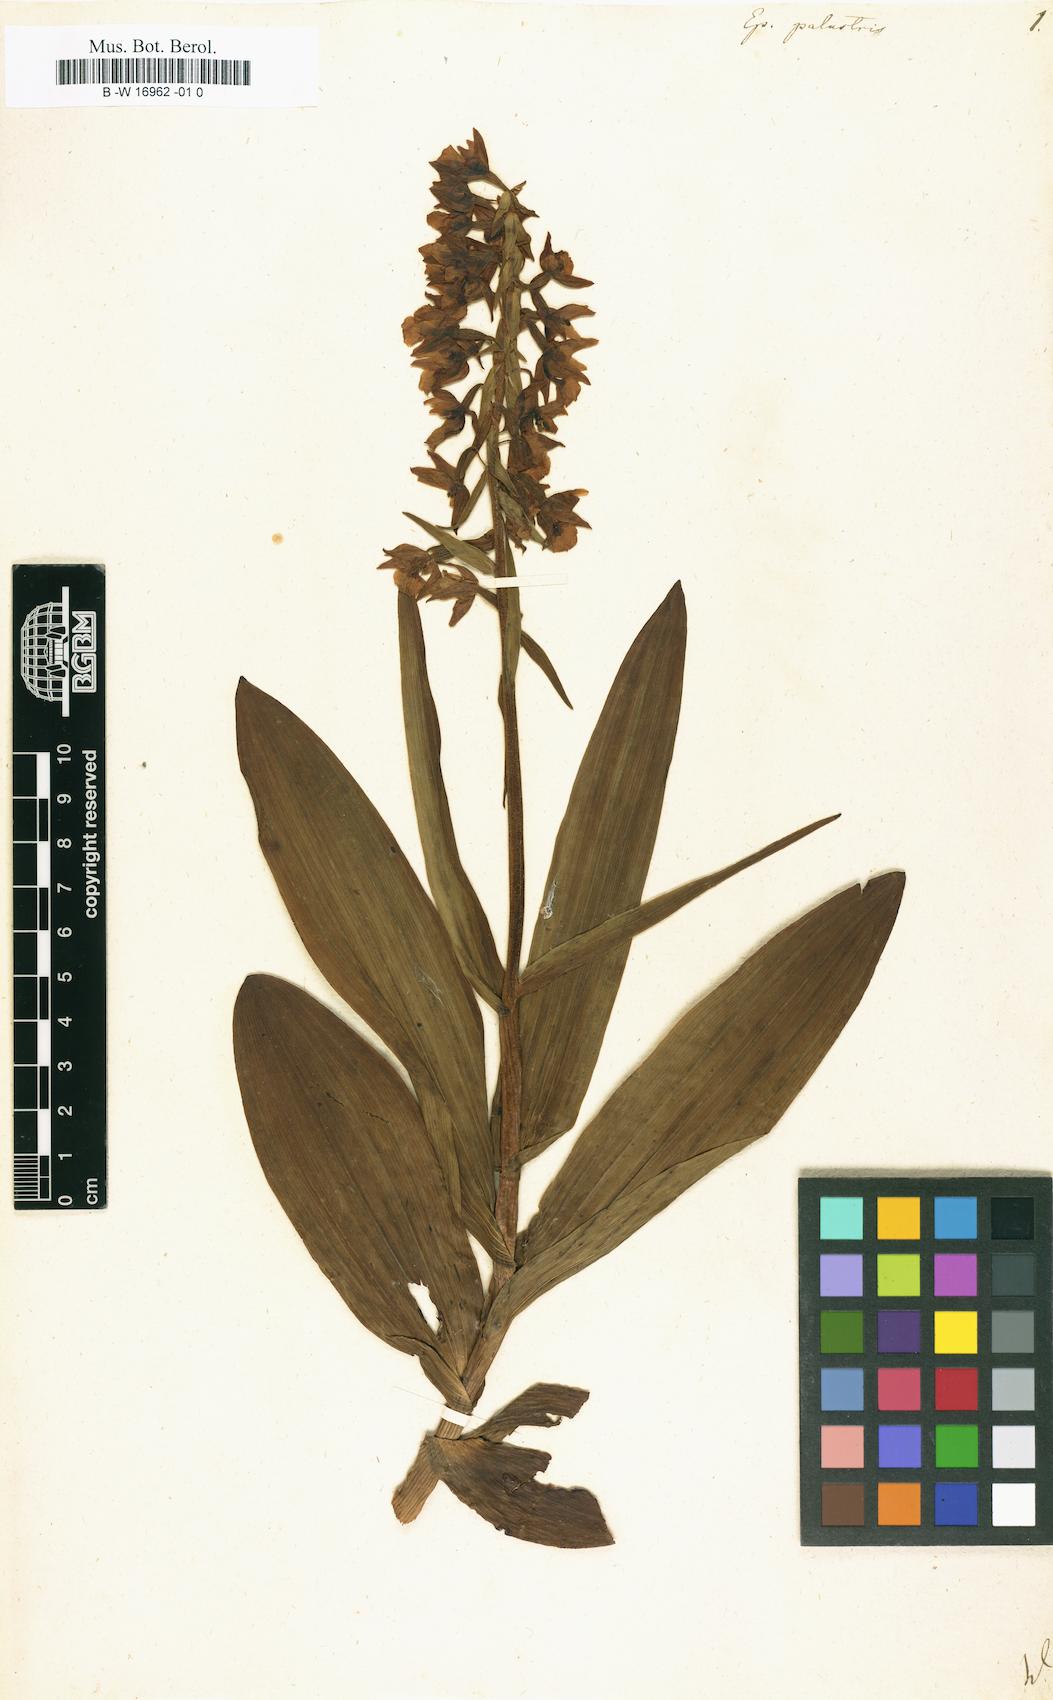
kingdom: Plantae
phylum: Tracheophyta
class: Liliopsida
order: Asparagales
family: Orchidaceae
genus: Epipactis
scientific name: Epipactis palustris
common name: Marsh helleborine
